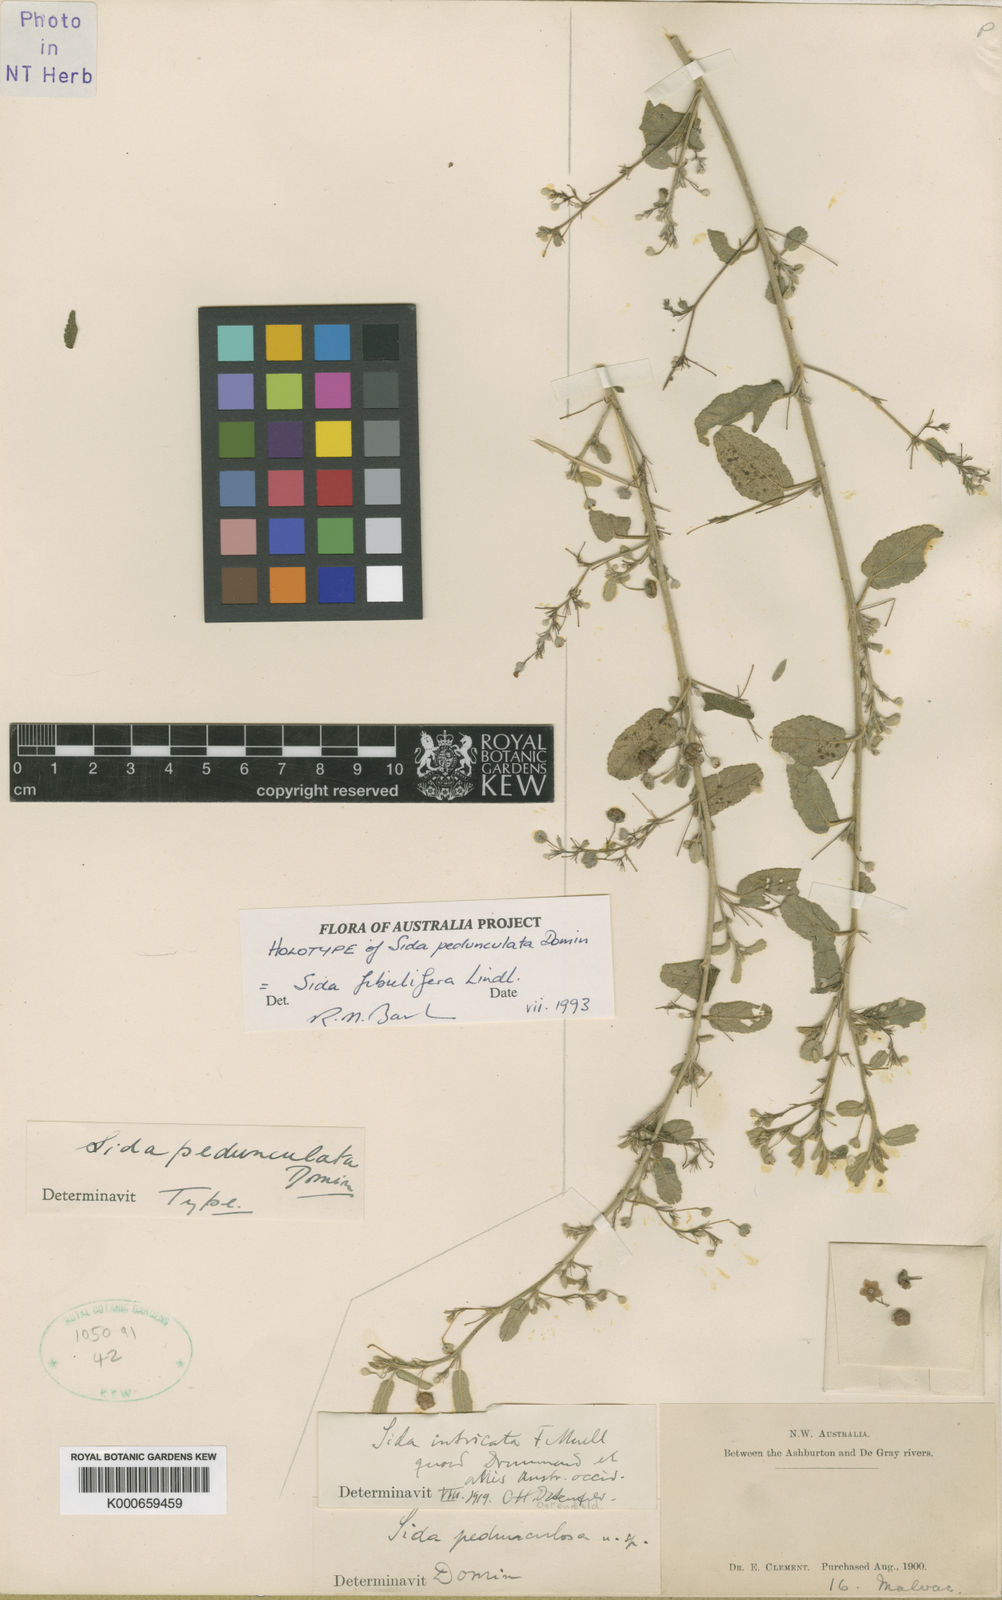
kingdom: Plantae
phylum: Tracheophyta
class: Magnoliopsida
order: Malvales
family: Malvaceae
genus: Sida
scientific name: Sida fibulifera
